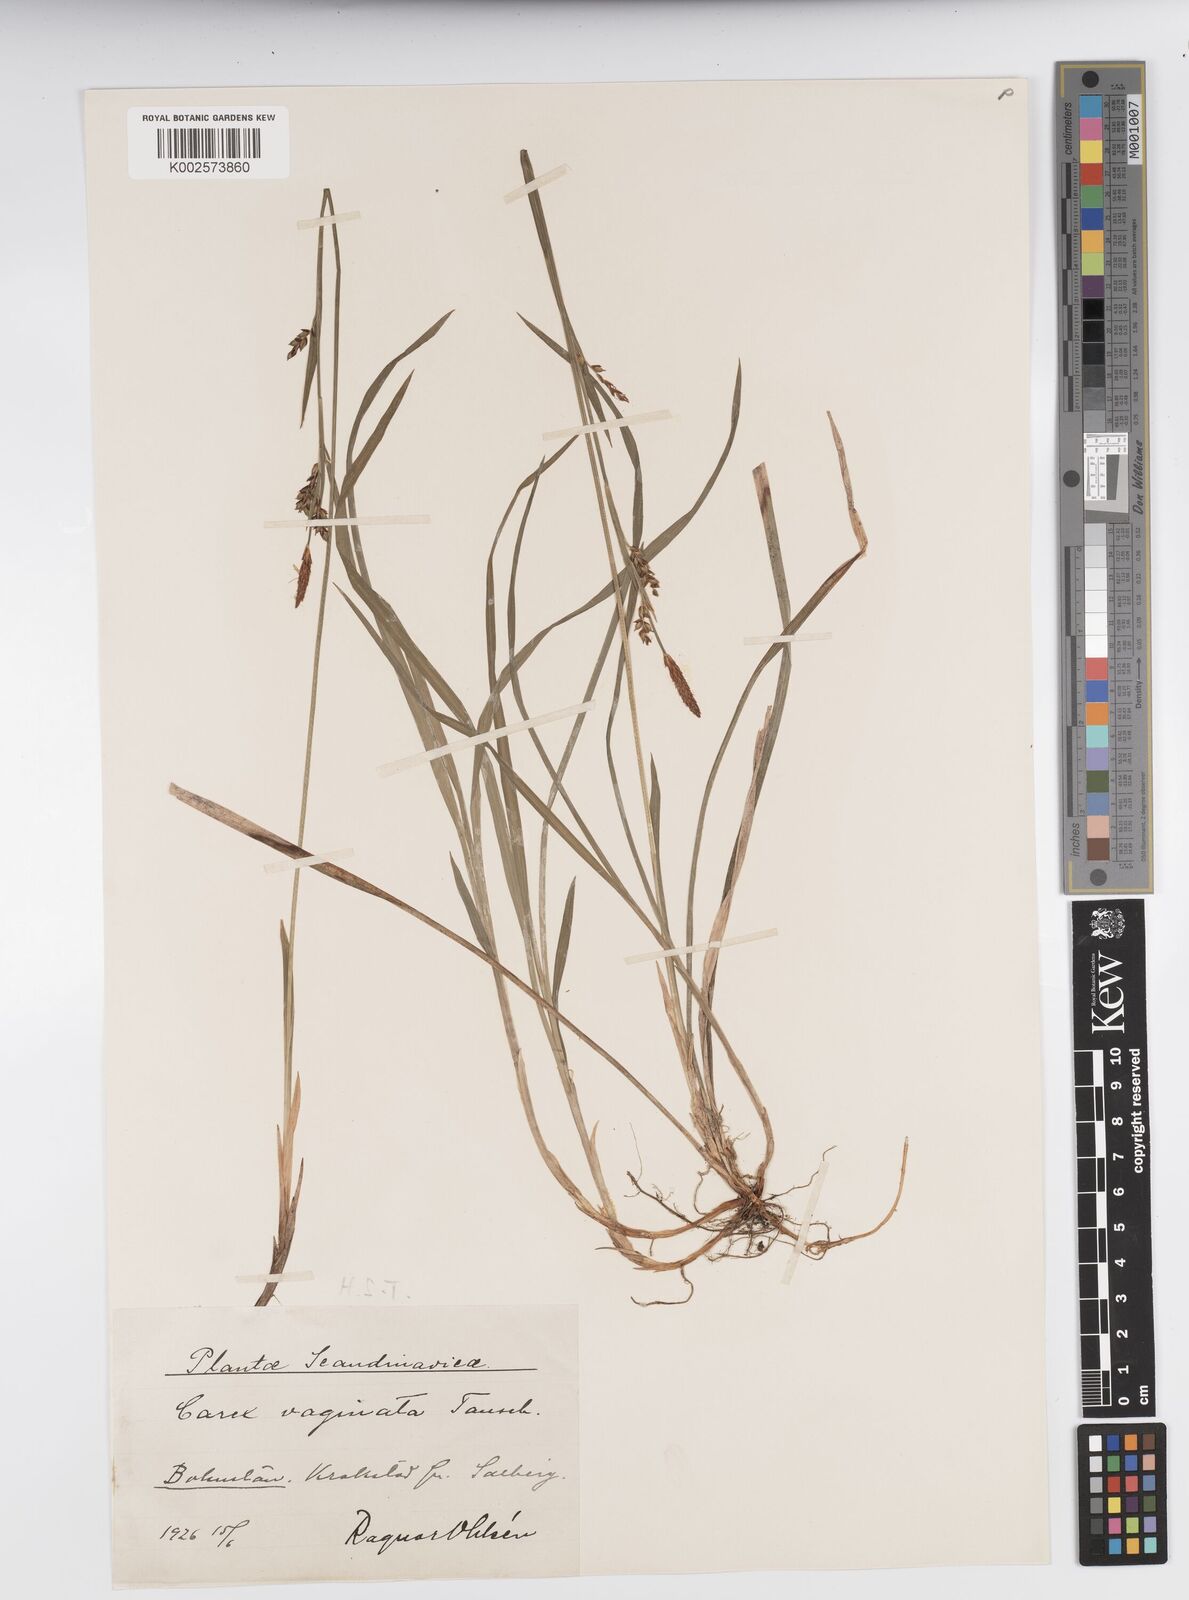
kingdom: Plantae
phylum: Tracheophyta
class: Liliopsida
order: Poales
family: Cyperaceae
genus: Carex
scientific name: Carex vaginata
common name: Sheathed sedge
